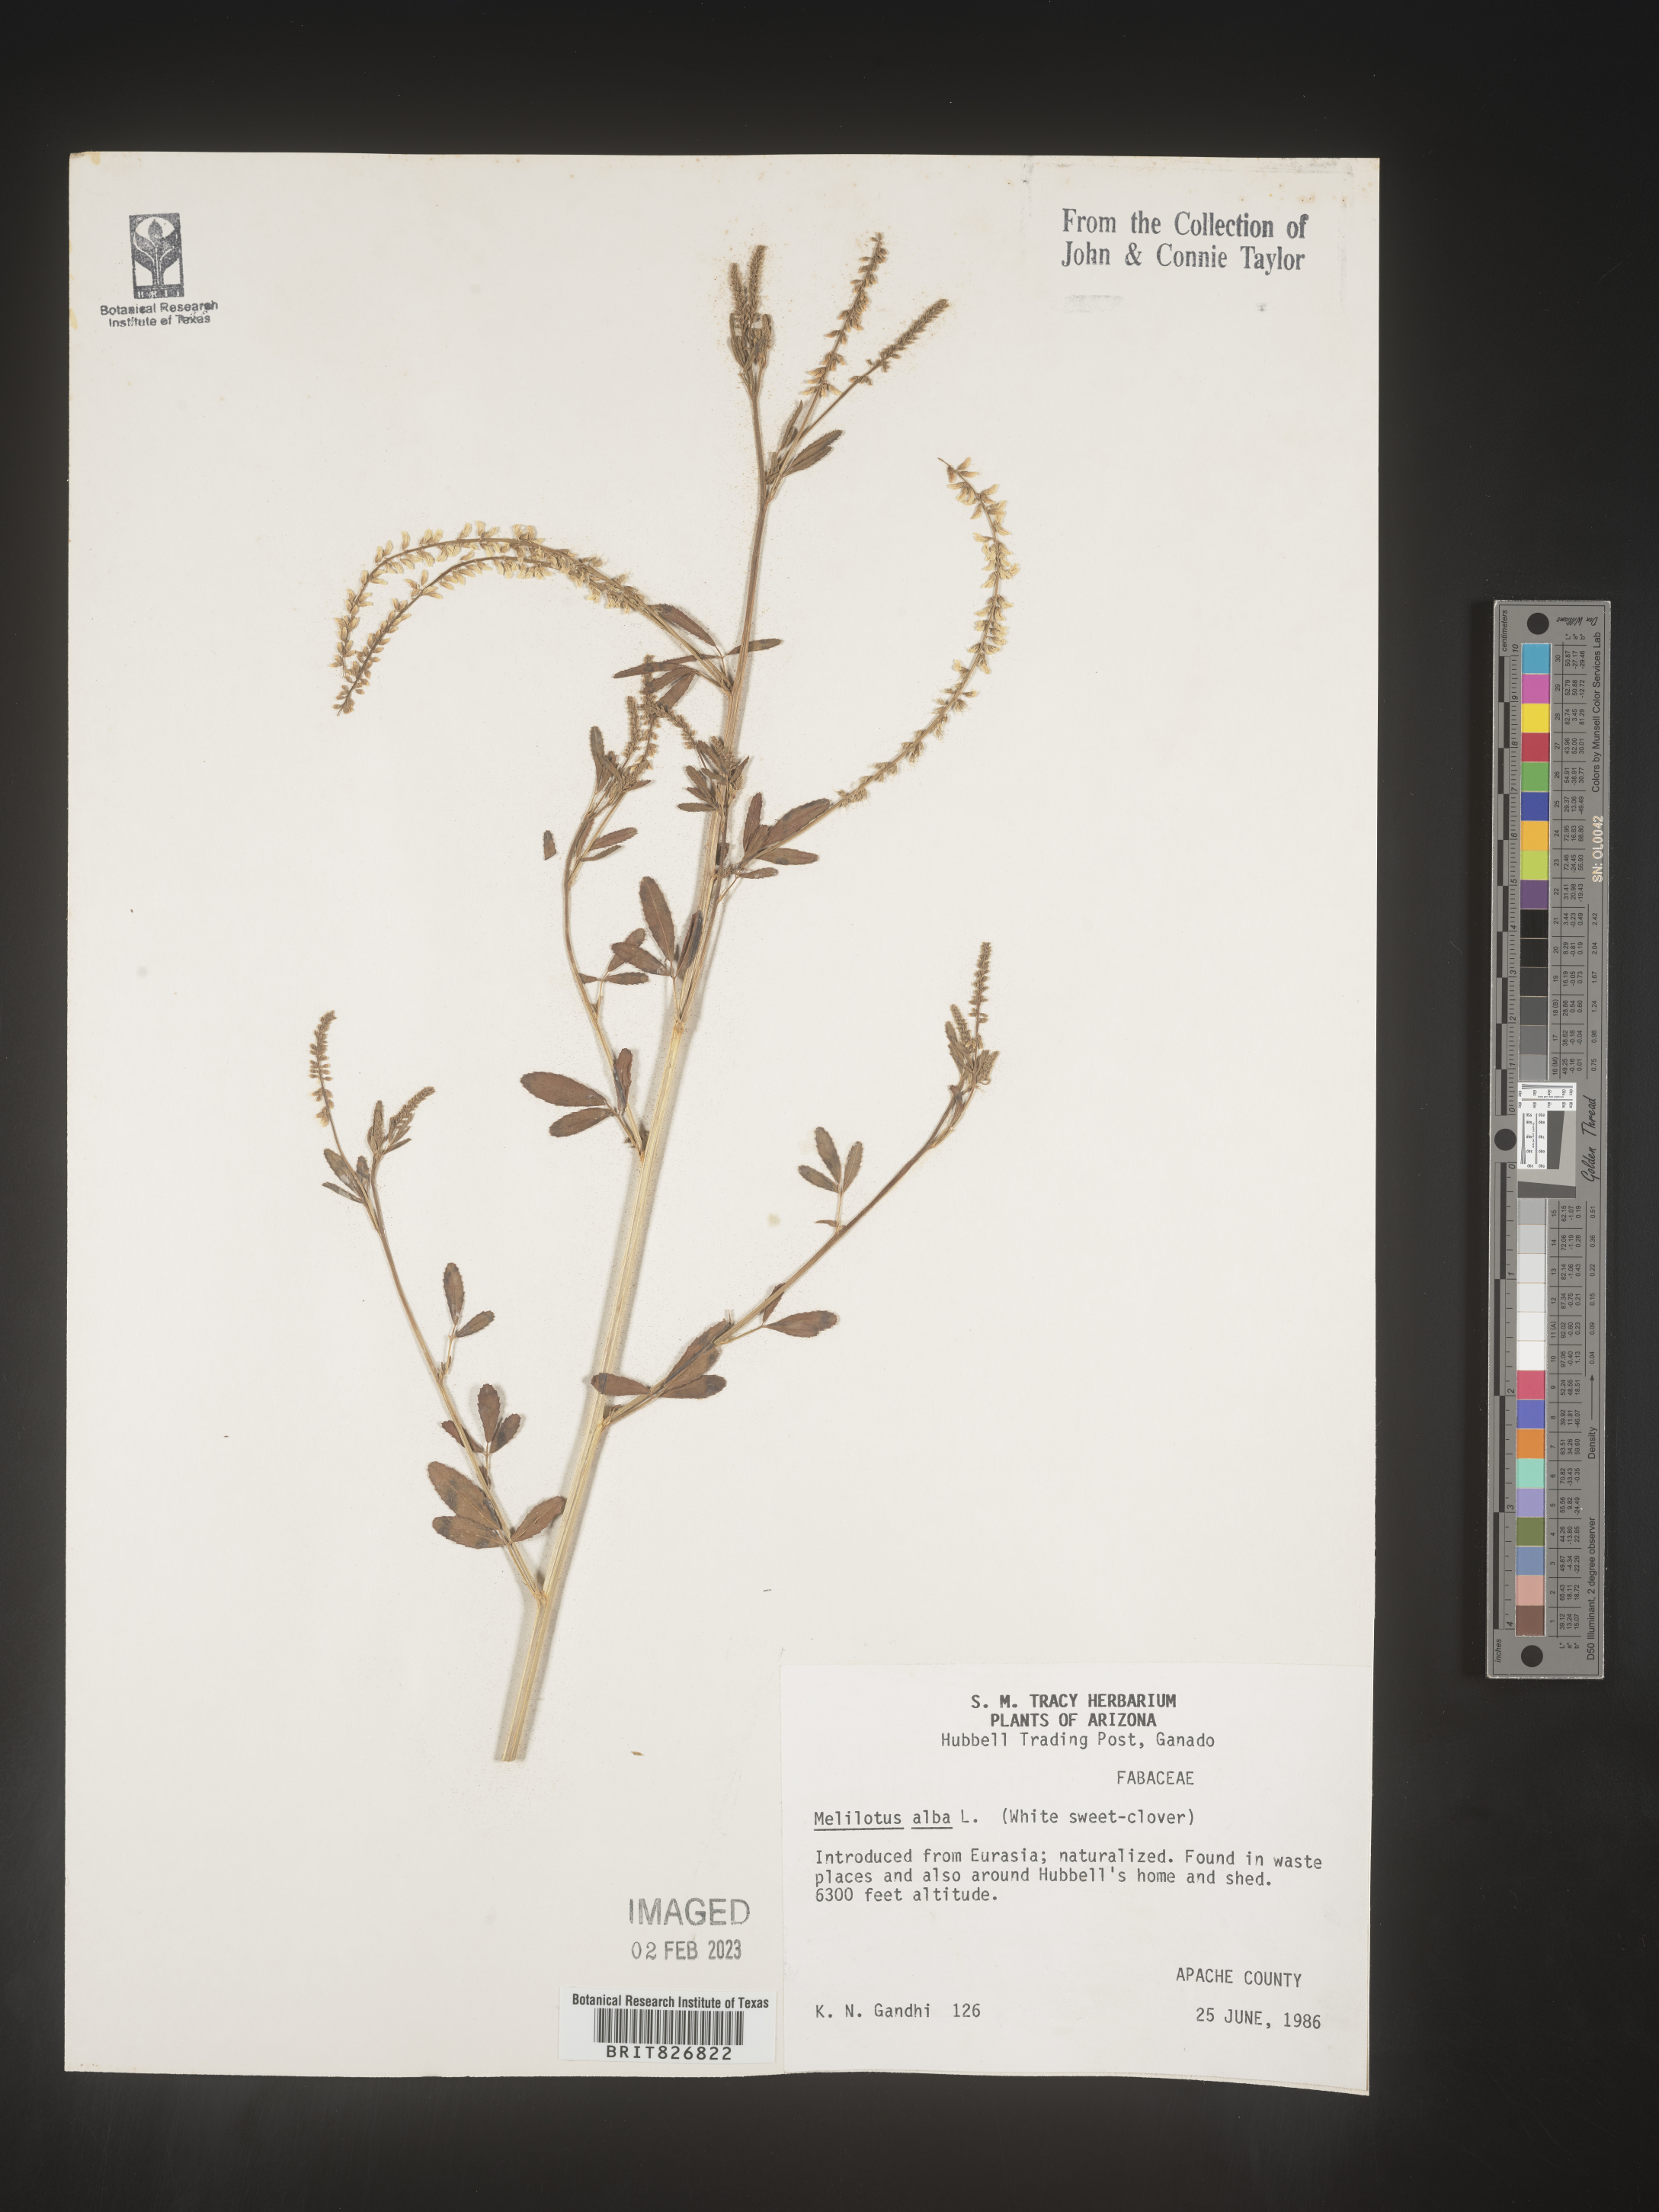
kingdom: Plantae
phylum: Tracheophyta
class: Magnoliopsida
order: Fabales
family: Fabaceae
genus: Melilotus
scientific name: Melilotus albus
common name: White melilot
